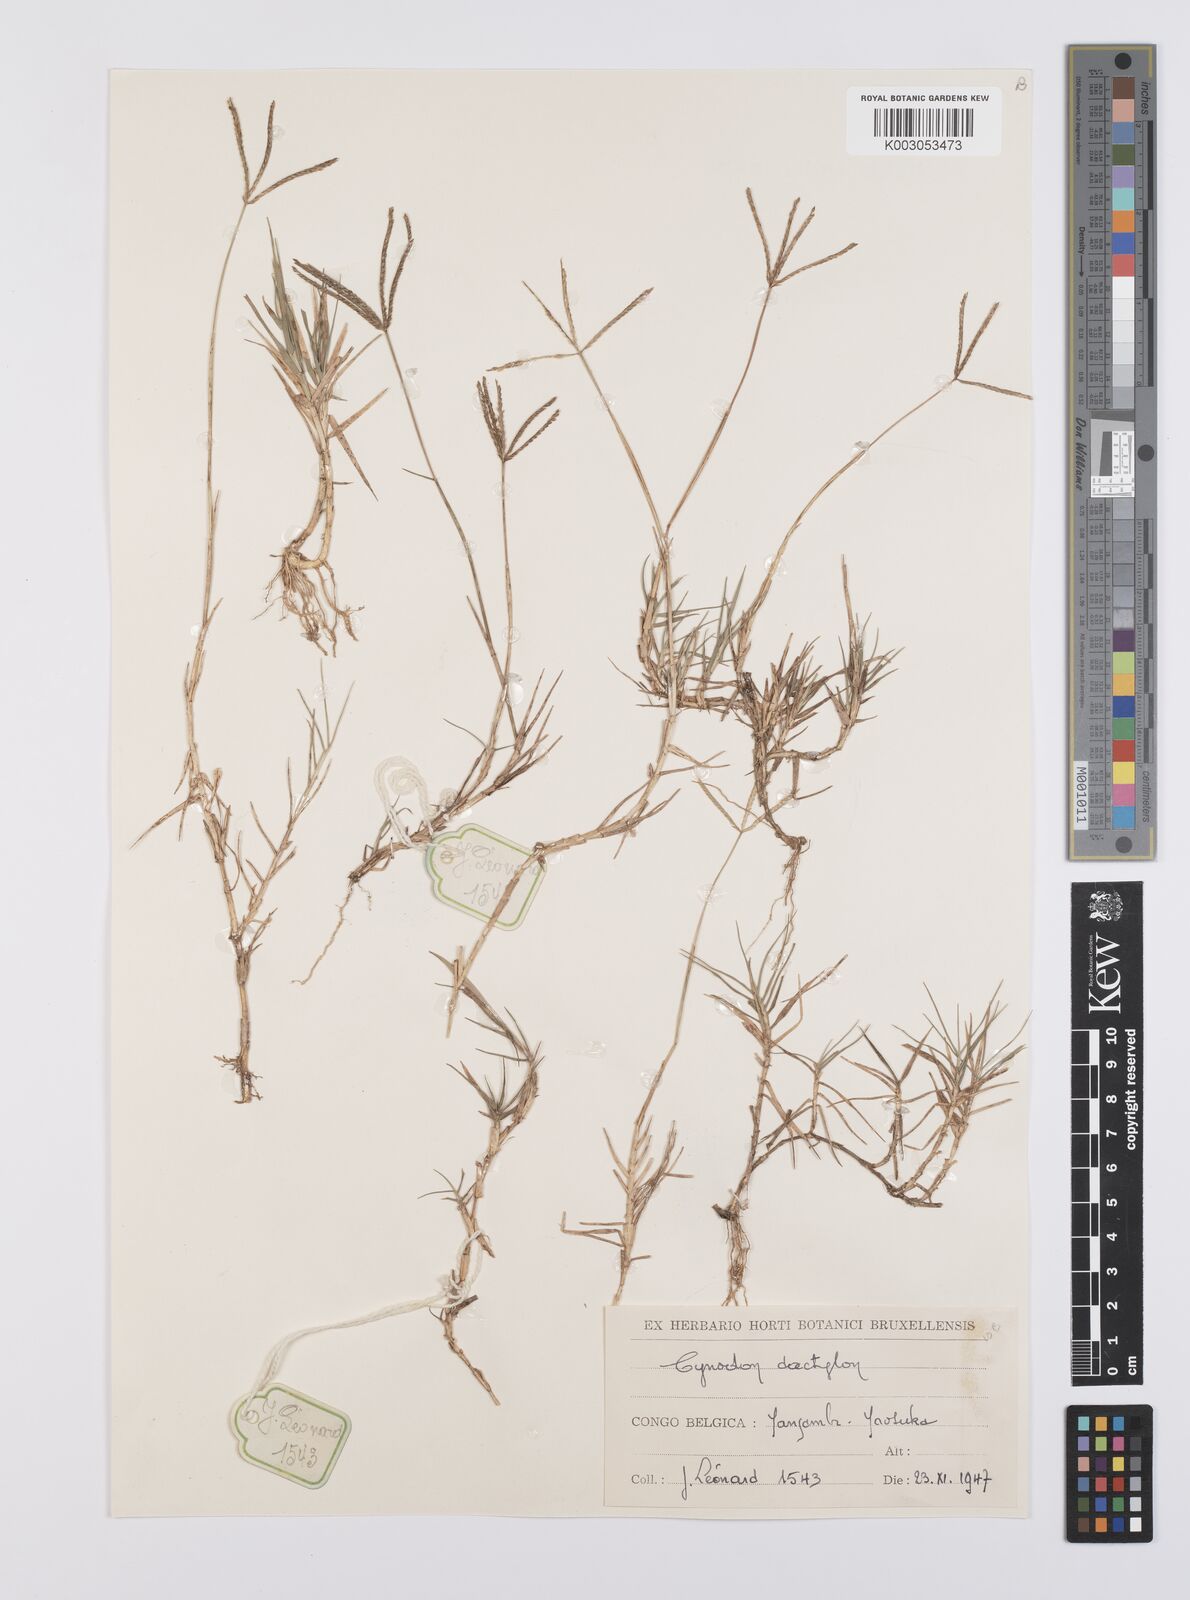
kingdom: Plantae
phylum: Tracheophyta
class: Liliopsida
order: Poales
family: Poaceae
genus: Cynodon
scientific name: Cynodon dactylon
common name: Bermuda grass
